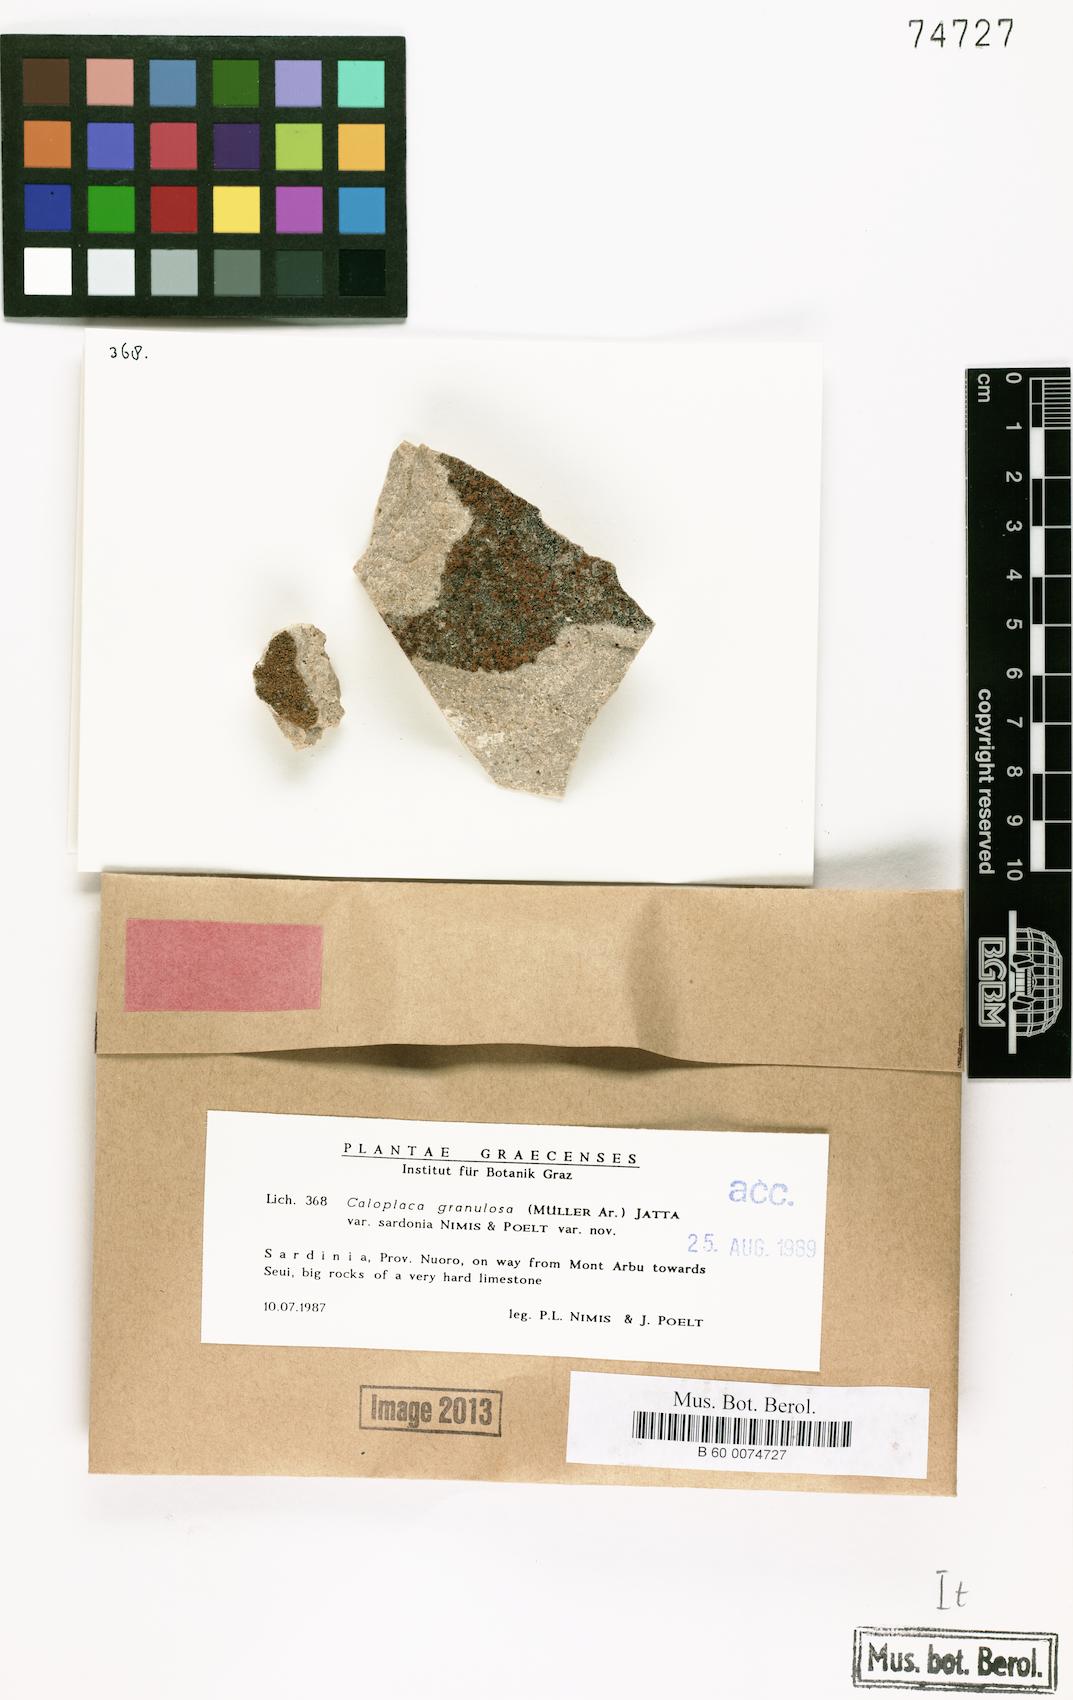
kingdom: Fungi
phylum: Ascomycota
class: Lecanoromycetes
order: Teloschistales
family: Teloschistaceae
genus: Flavoplaca
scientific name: Flavoplaca granulosa
